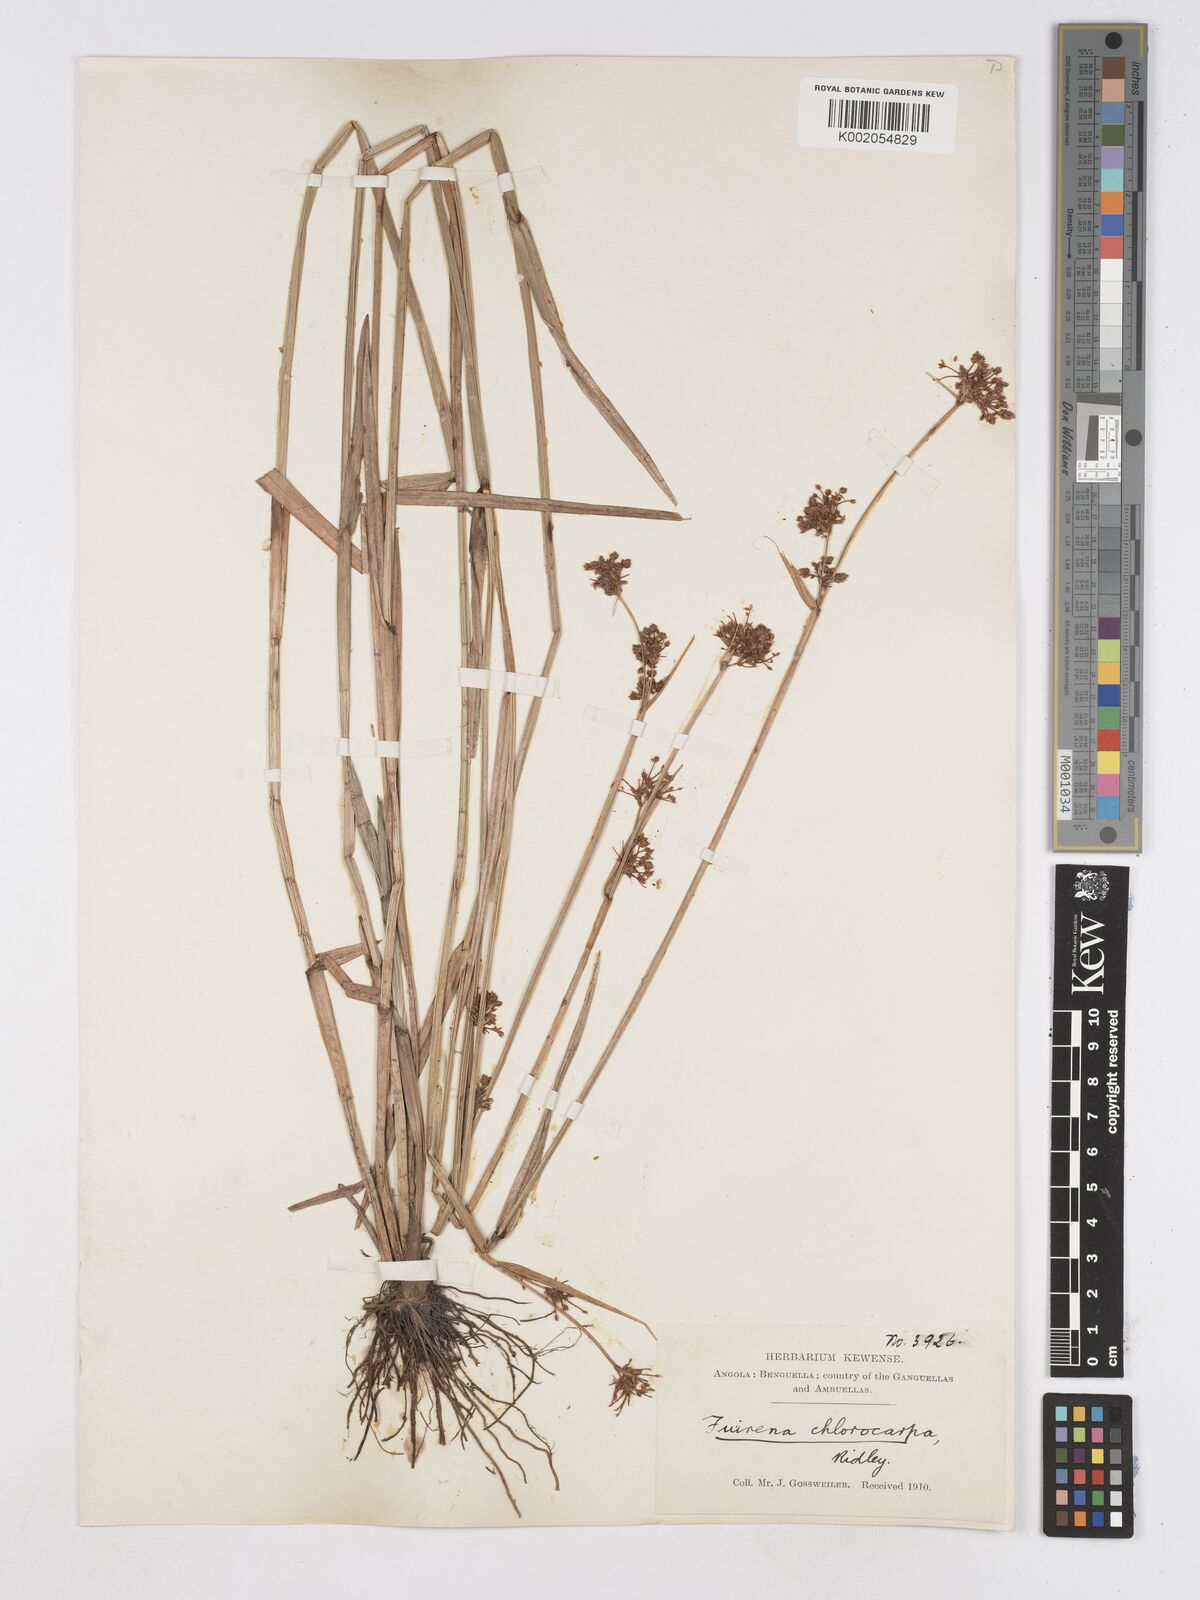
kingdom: Plantae
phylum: Tracheophyta
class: Liliopsida
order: Poales
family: Cyperaceae
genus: Fuirena
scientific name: Fuirena stricta
